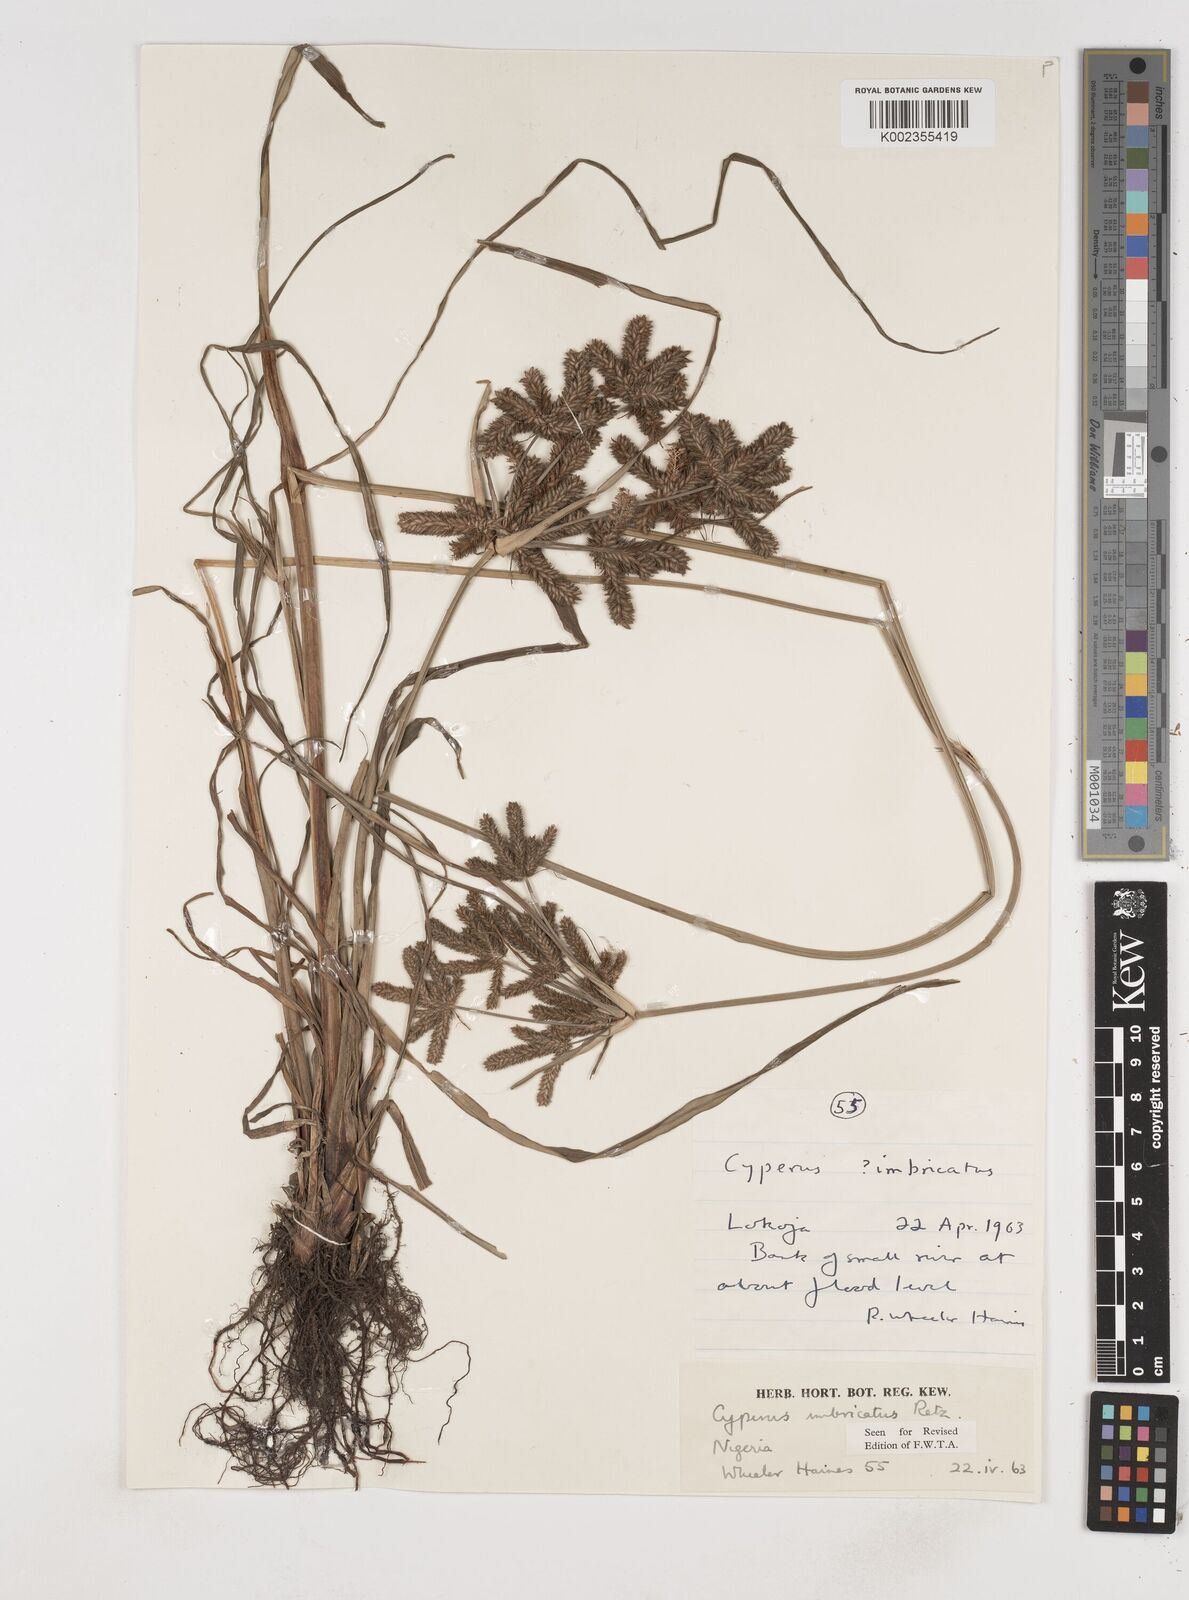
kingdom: Plantae
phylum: Tracheophyta
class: Liliopsida
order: Poales
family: Cyperaceae
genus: Cyperus
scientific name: Cyperus imbricatus
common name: Shingle flatsedge
